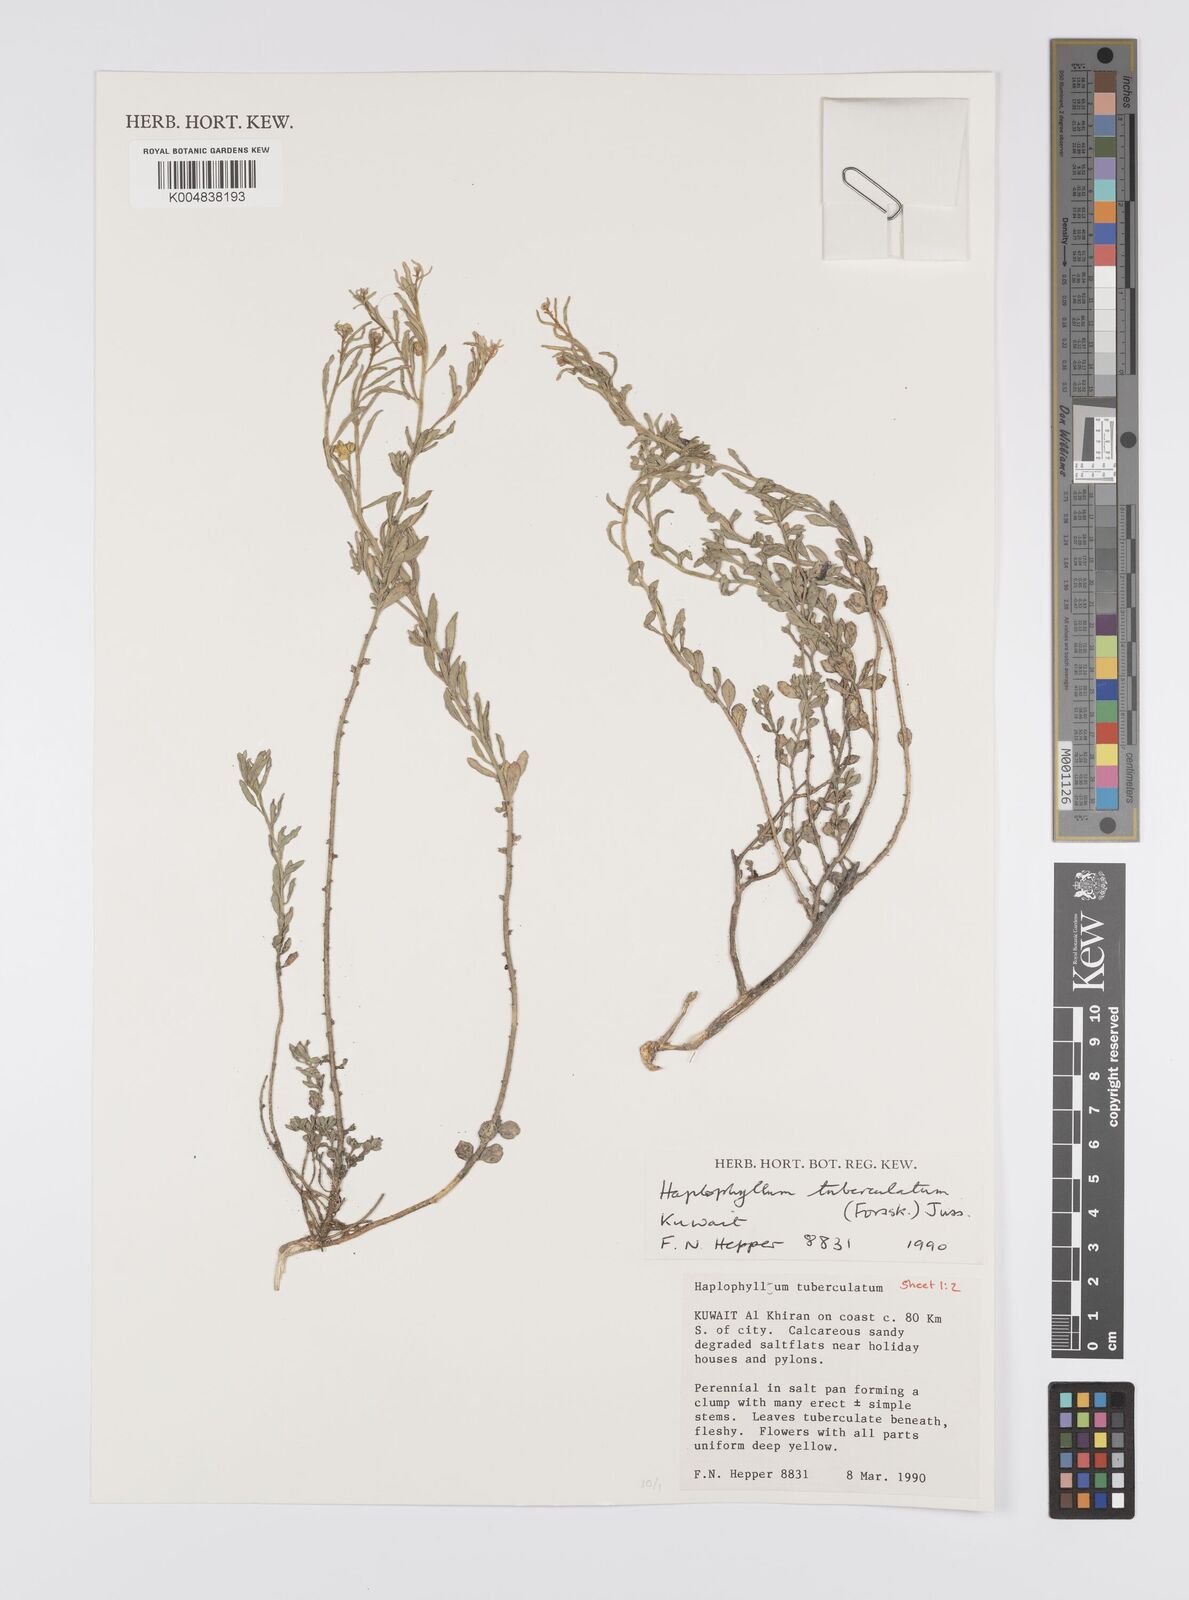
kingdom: Plantae
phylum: Tracheophyta
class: Magnoliopsida
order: Sapindales
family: Rutaceae
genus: Haplophyllum
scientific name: Haplophyllum tuberculatum
